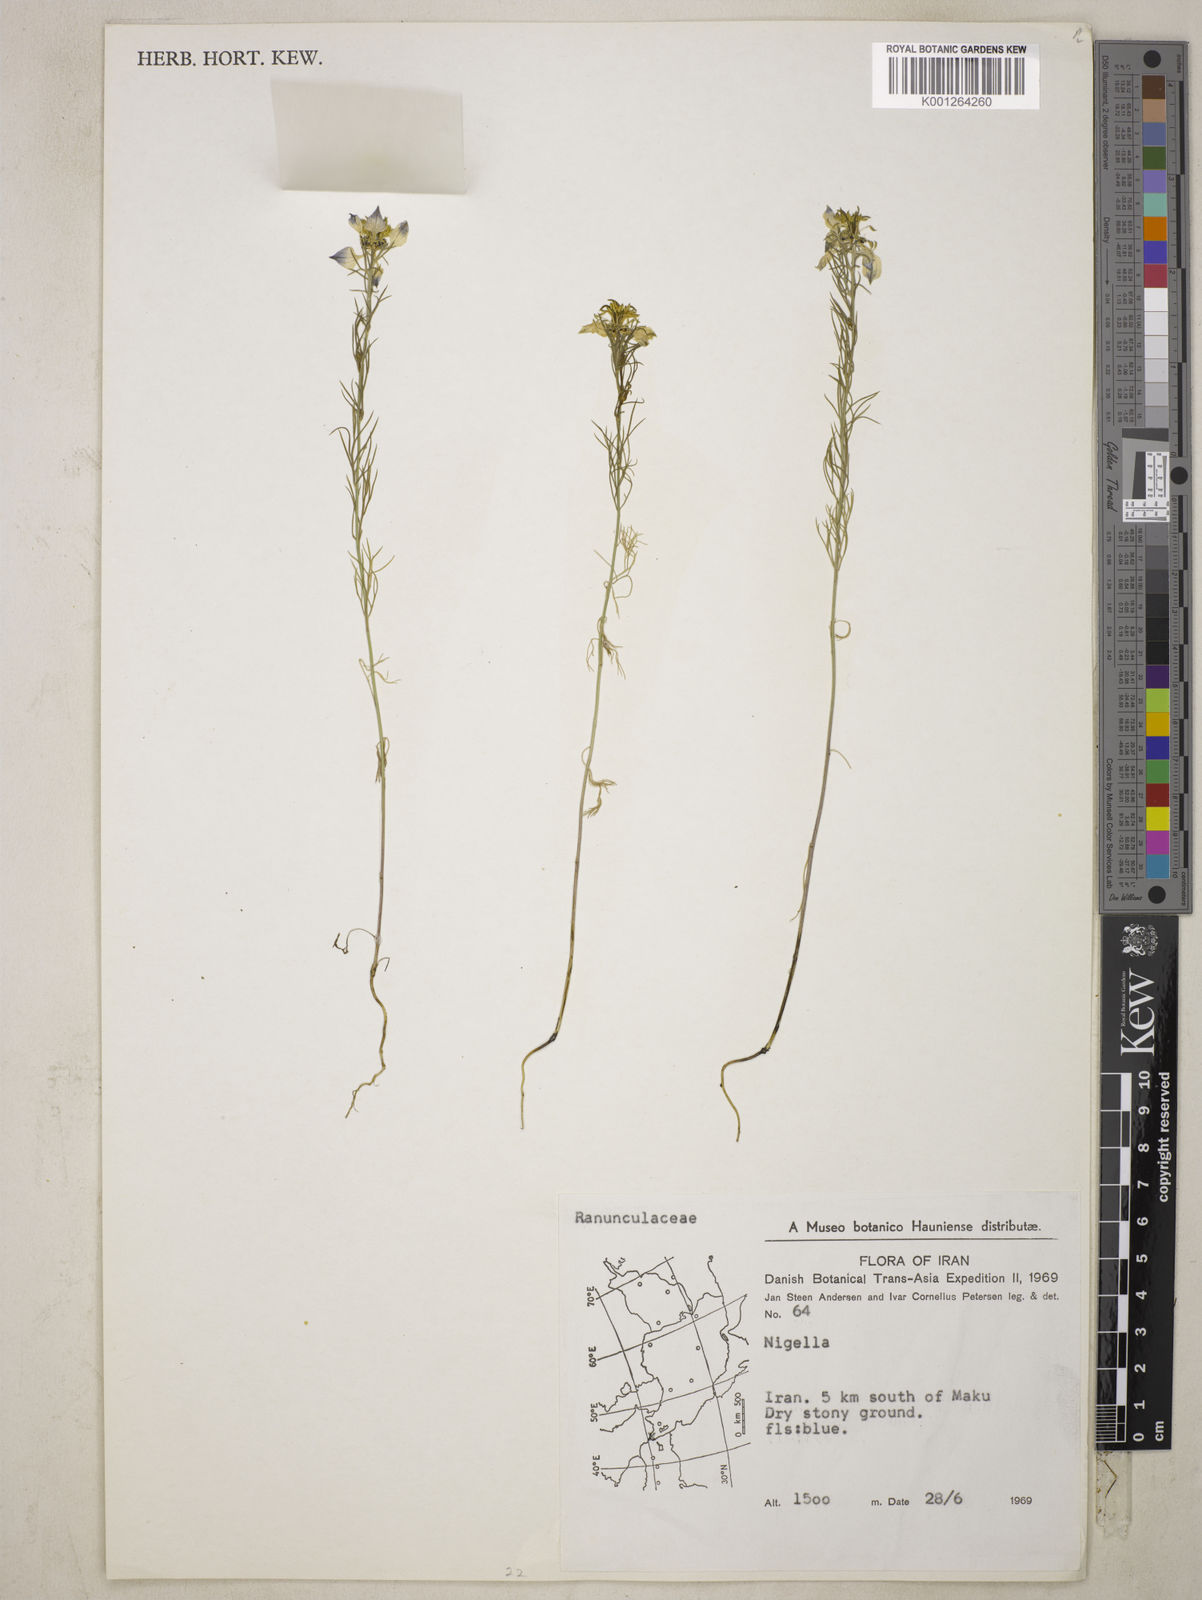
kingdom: Plantae
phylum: Tracheophyta
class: Magnoliopsida
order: Ranunculales
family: Ranunculaceae
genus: Nigella
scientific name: Nigella
